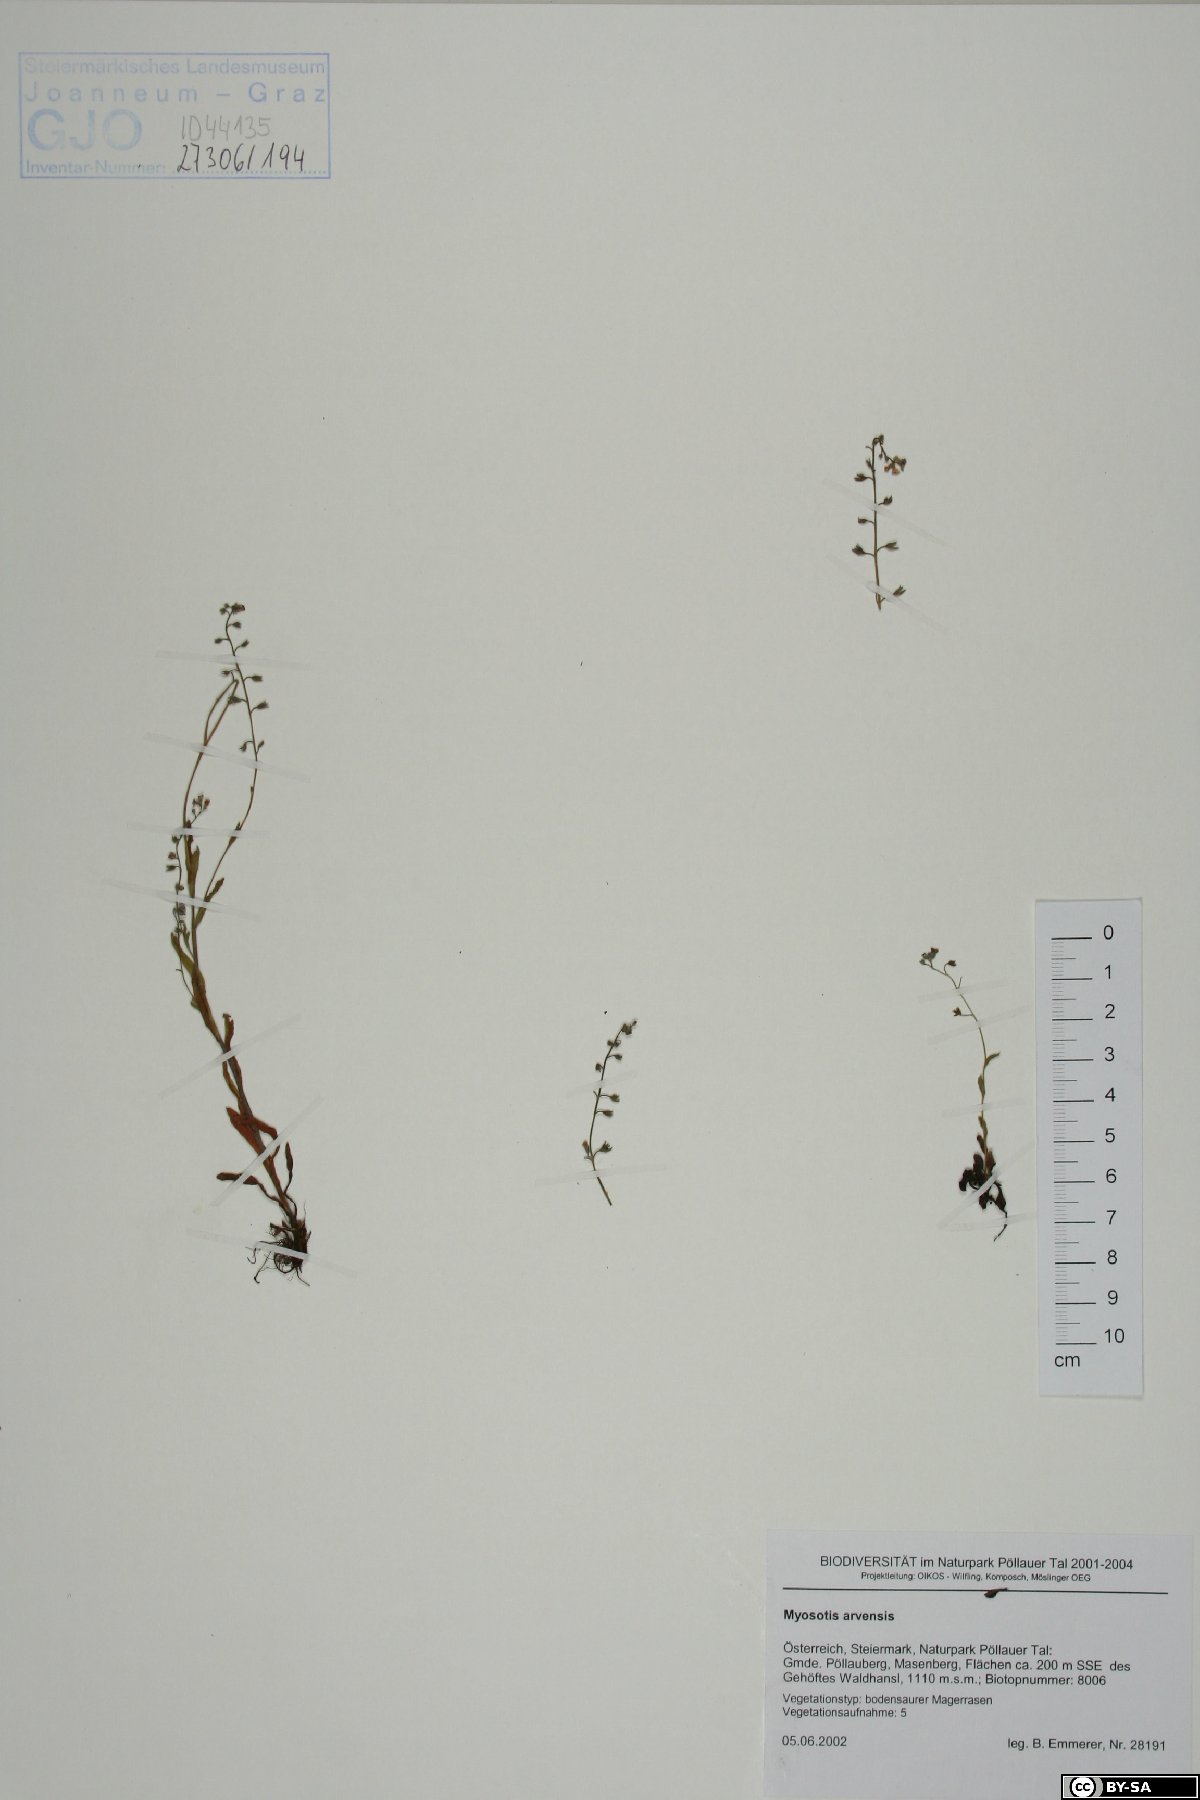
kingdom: Plantae
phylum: Tracheophyta
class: Magnoliopsida
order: Boraginales
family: Boraginaceae
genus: Myosotis
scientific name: Myosotis arvensis
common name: Field forget-me-not
